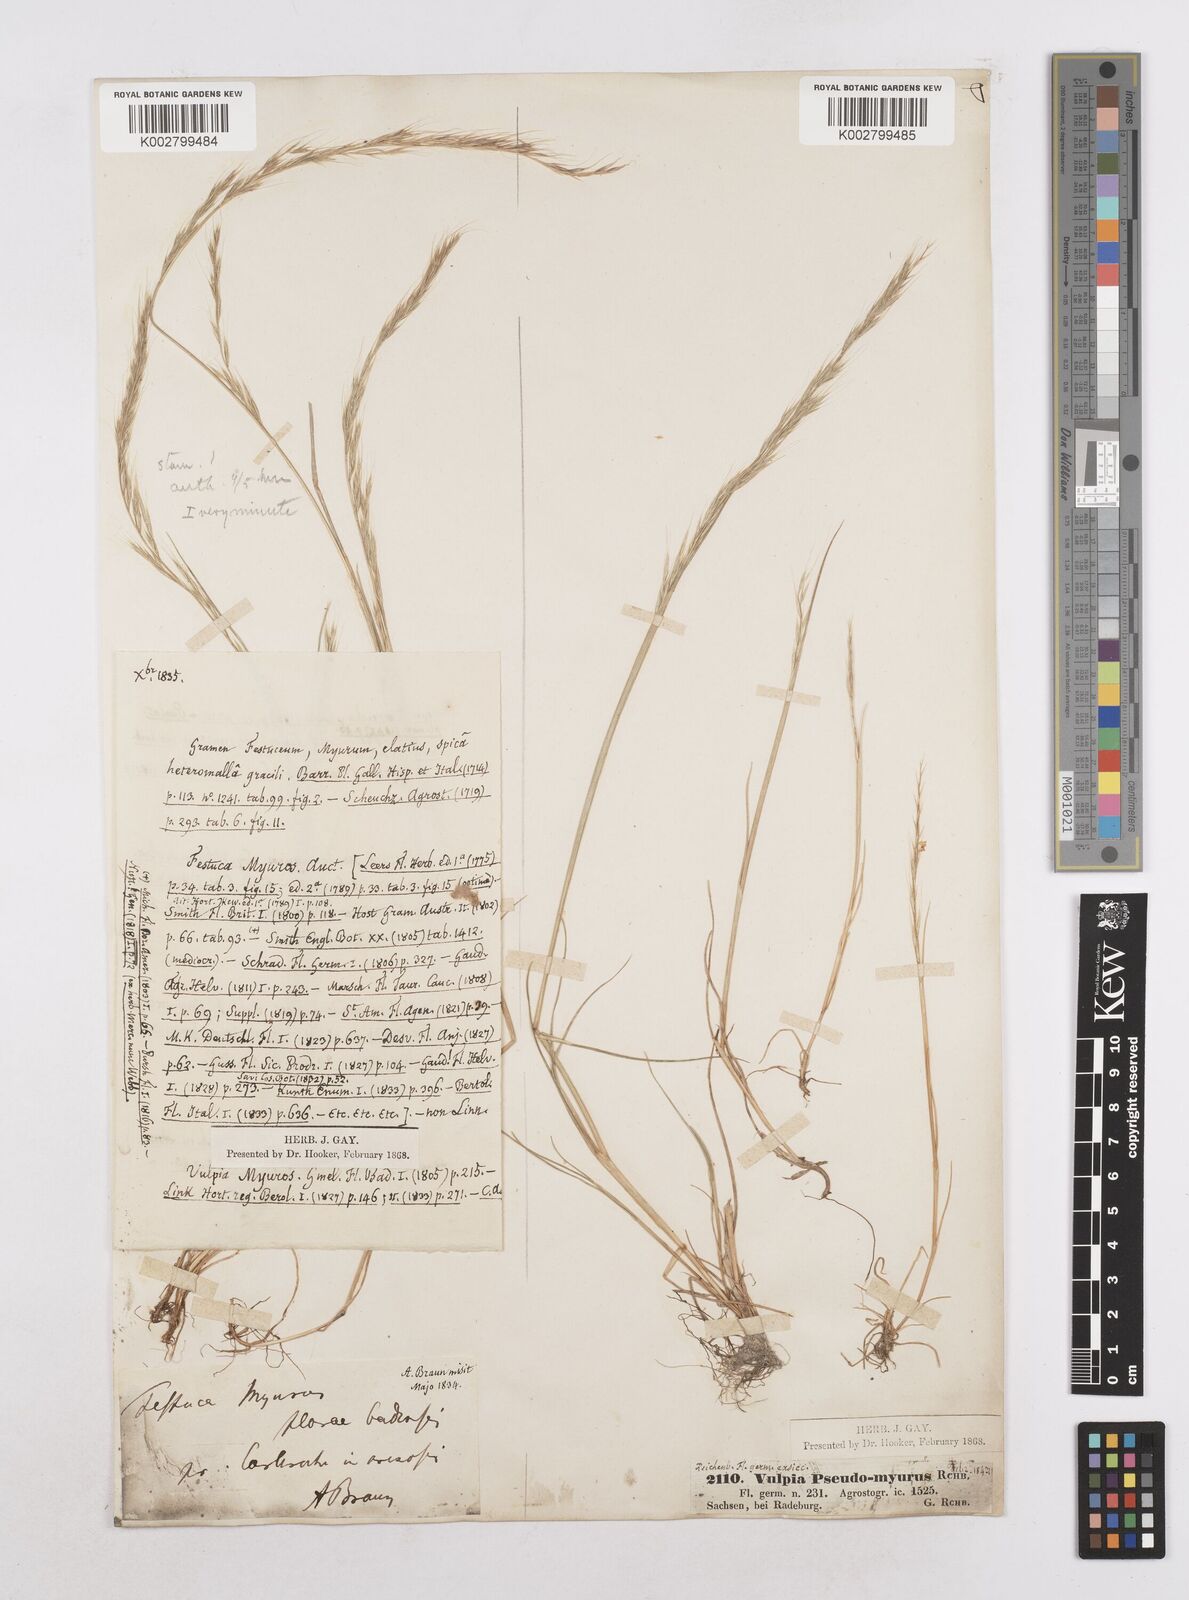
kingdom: Plantae
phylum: Tracheophyta
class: Liliopsida
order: Poales
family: Poaceae
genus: Festuca
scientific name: Festuca myuros
